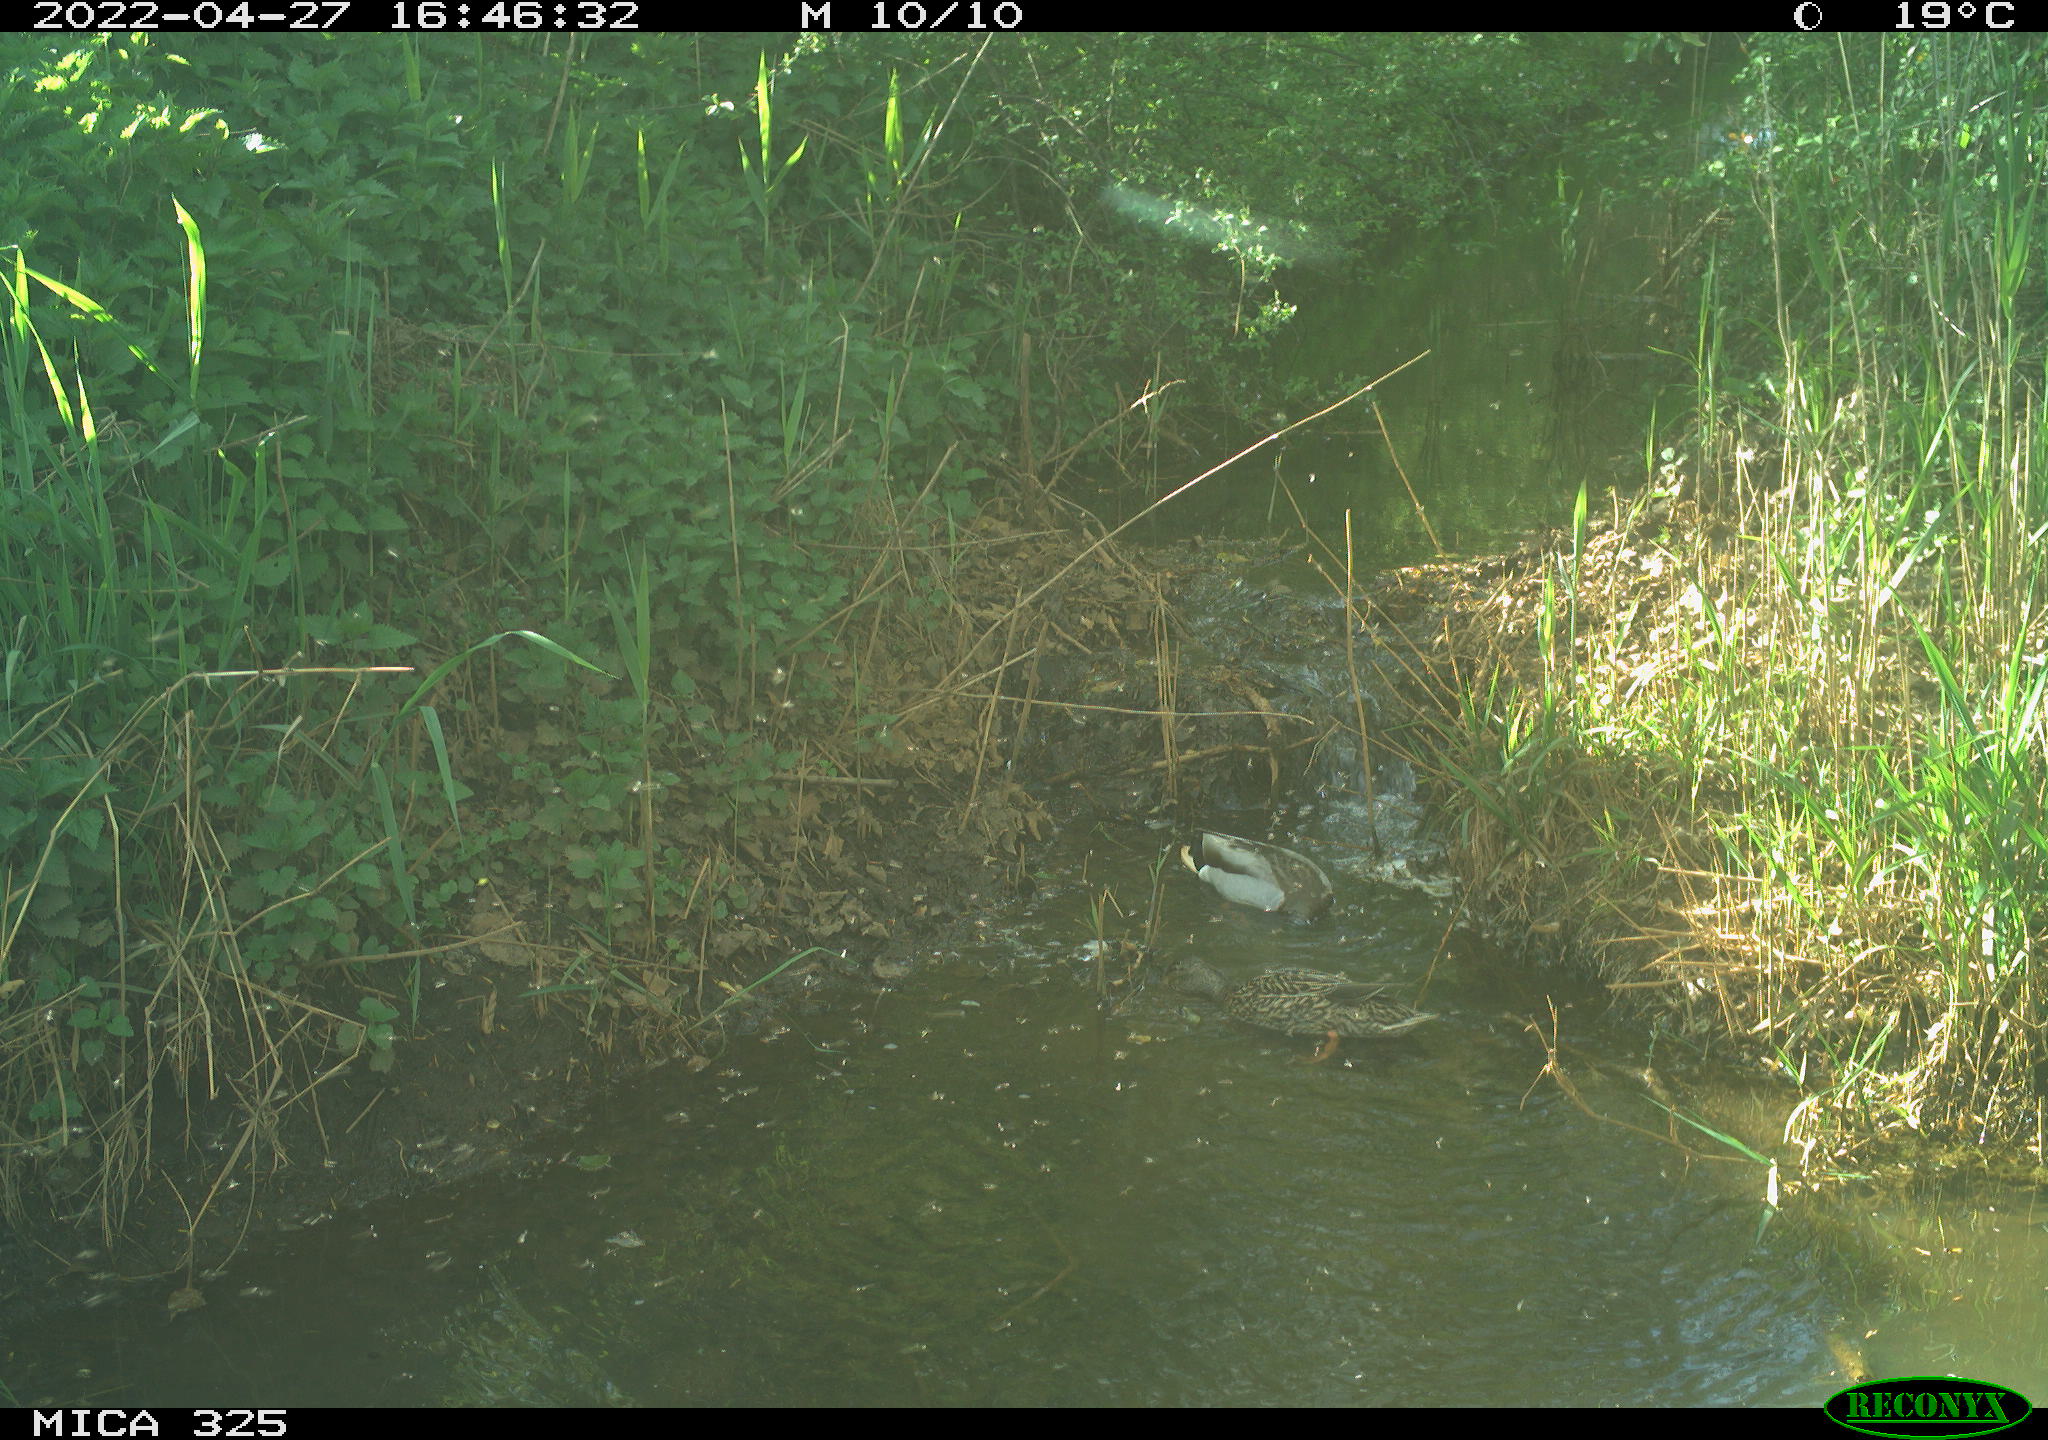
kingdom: Animalia
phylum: Chordata
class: Aves
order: Anseriformes
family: Anatidae
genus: Anas
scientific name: Anas platyrhynchos
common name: Mallard
